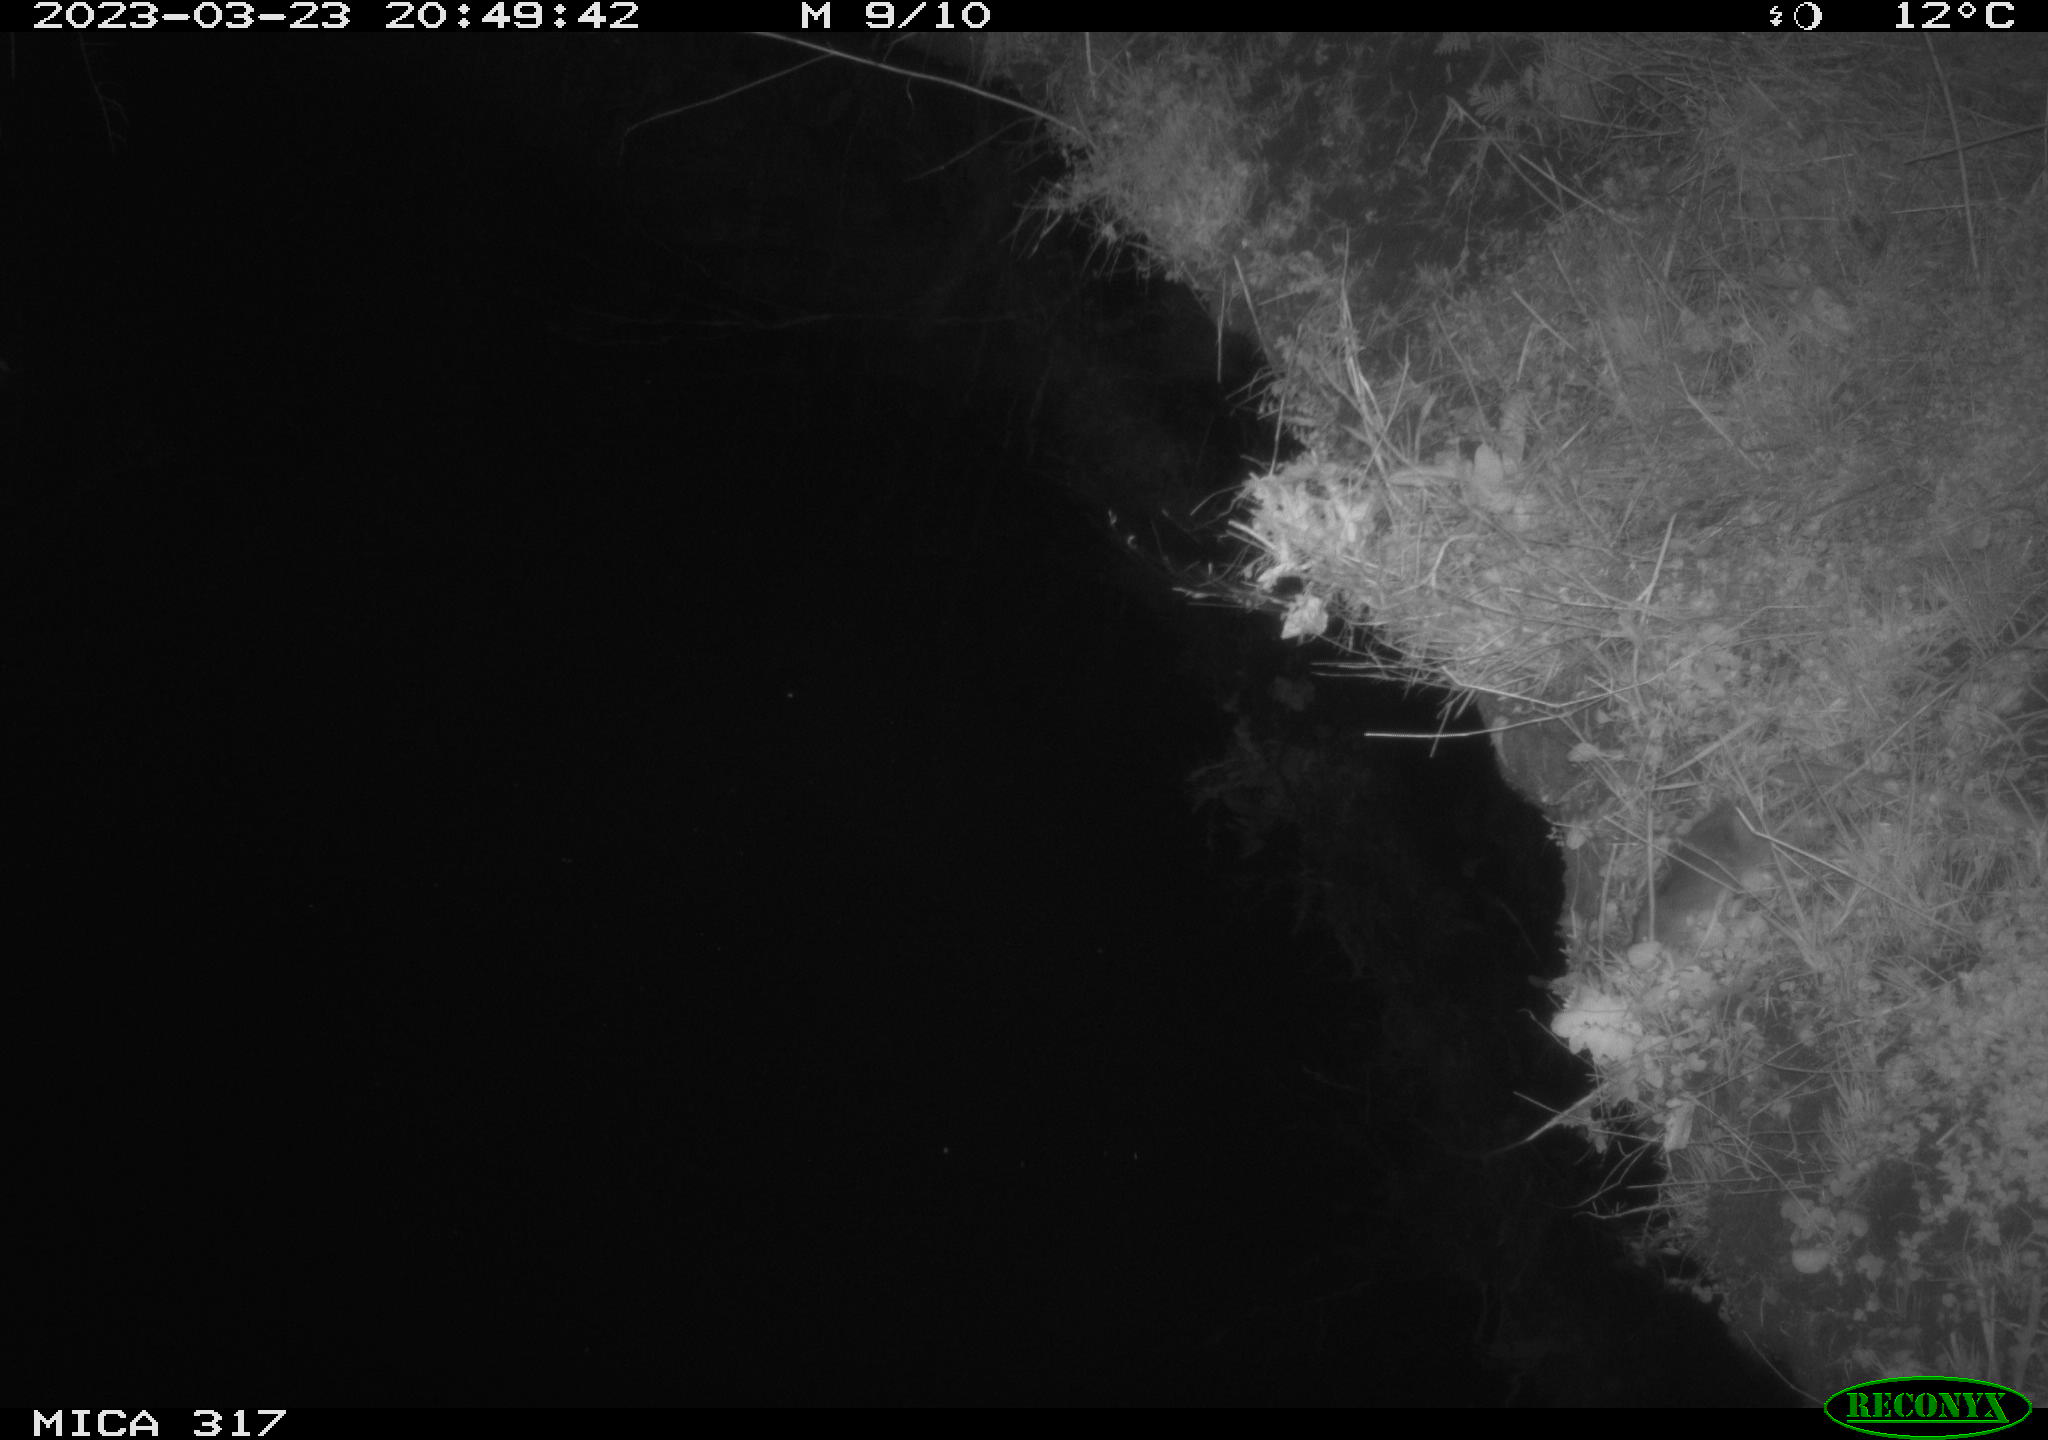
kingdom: Animalia
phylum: Chordata
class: Mammalia
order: Rodentia
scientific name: Rodentia
